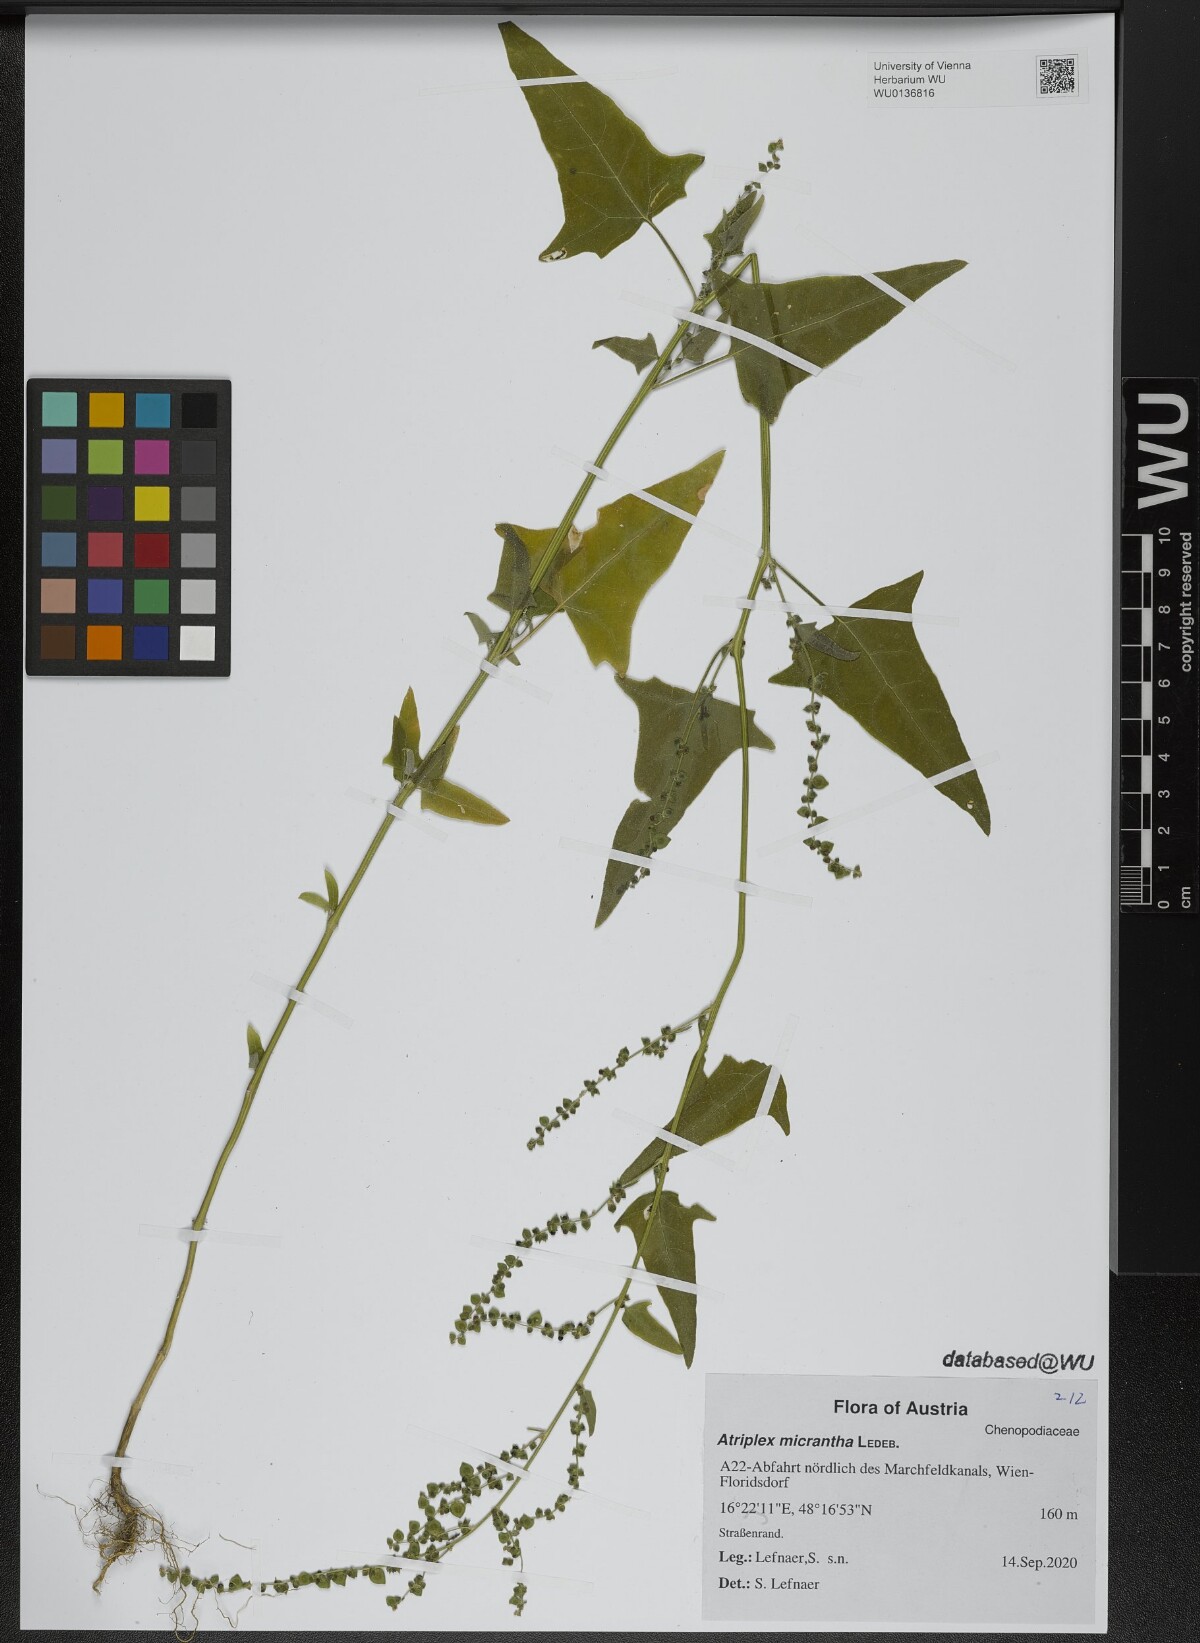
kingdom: Plantae
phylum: Tracheophyta
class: Magnoliopsida
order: Caryophyllales
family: Amaranthaceae
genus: Atriplex
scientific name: Atriplex micrantha
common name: Twoscale saltbush
